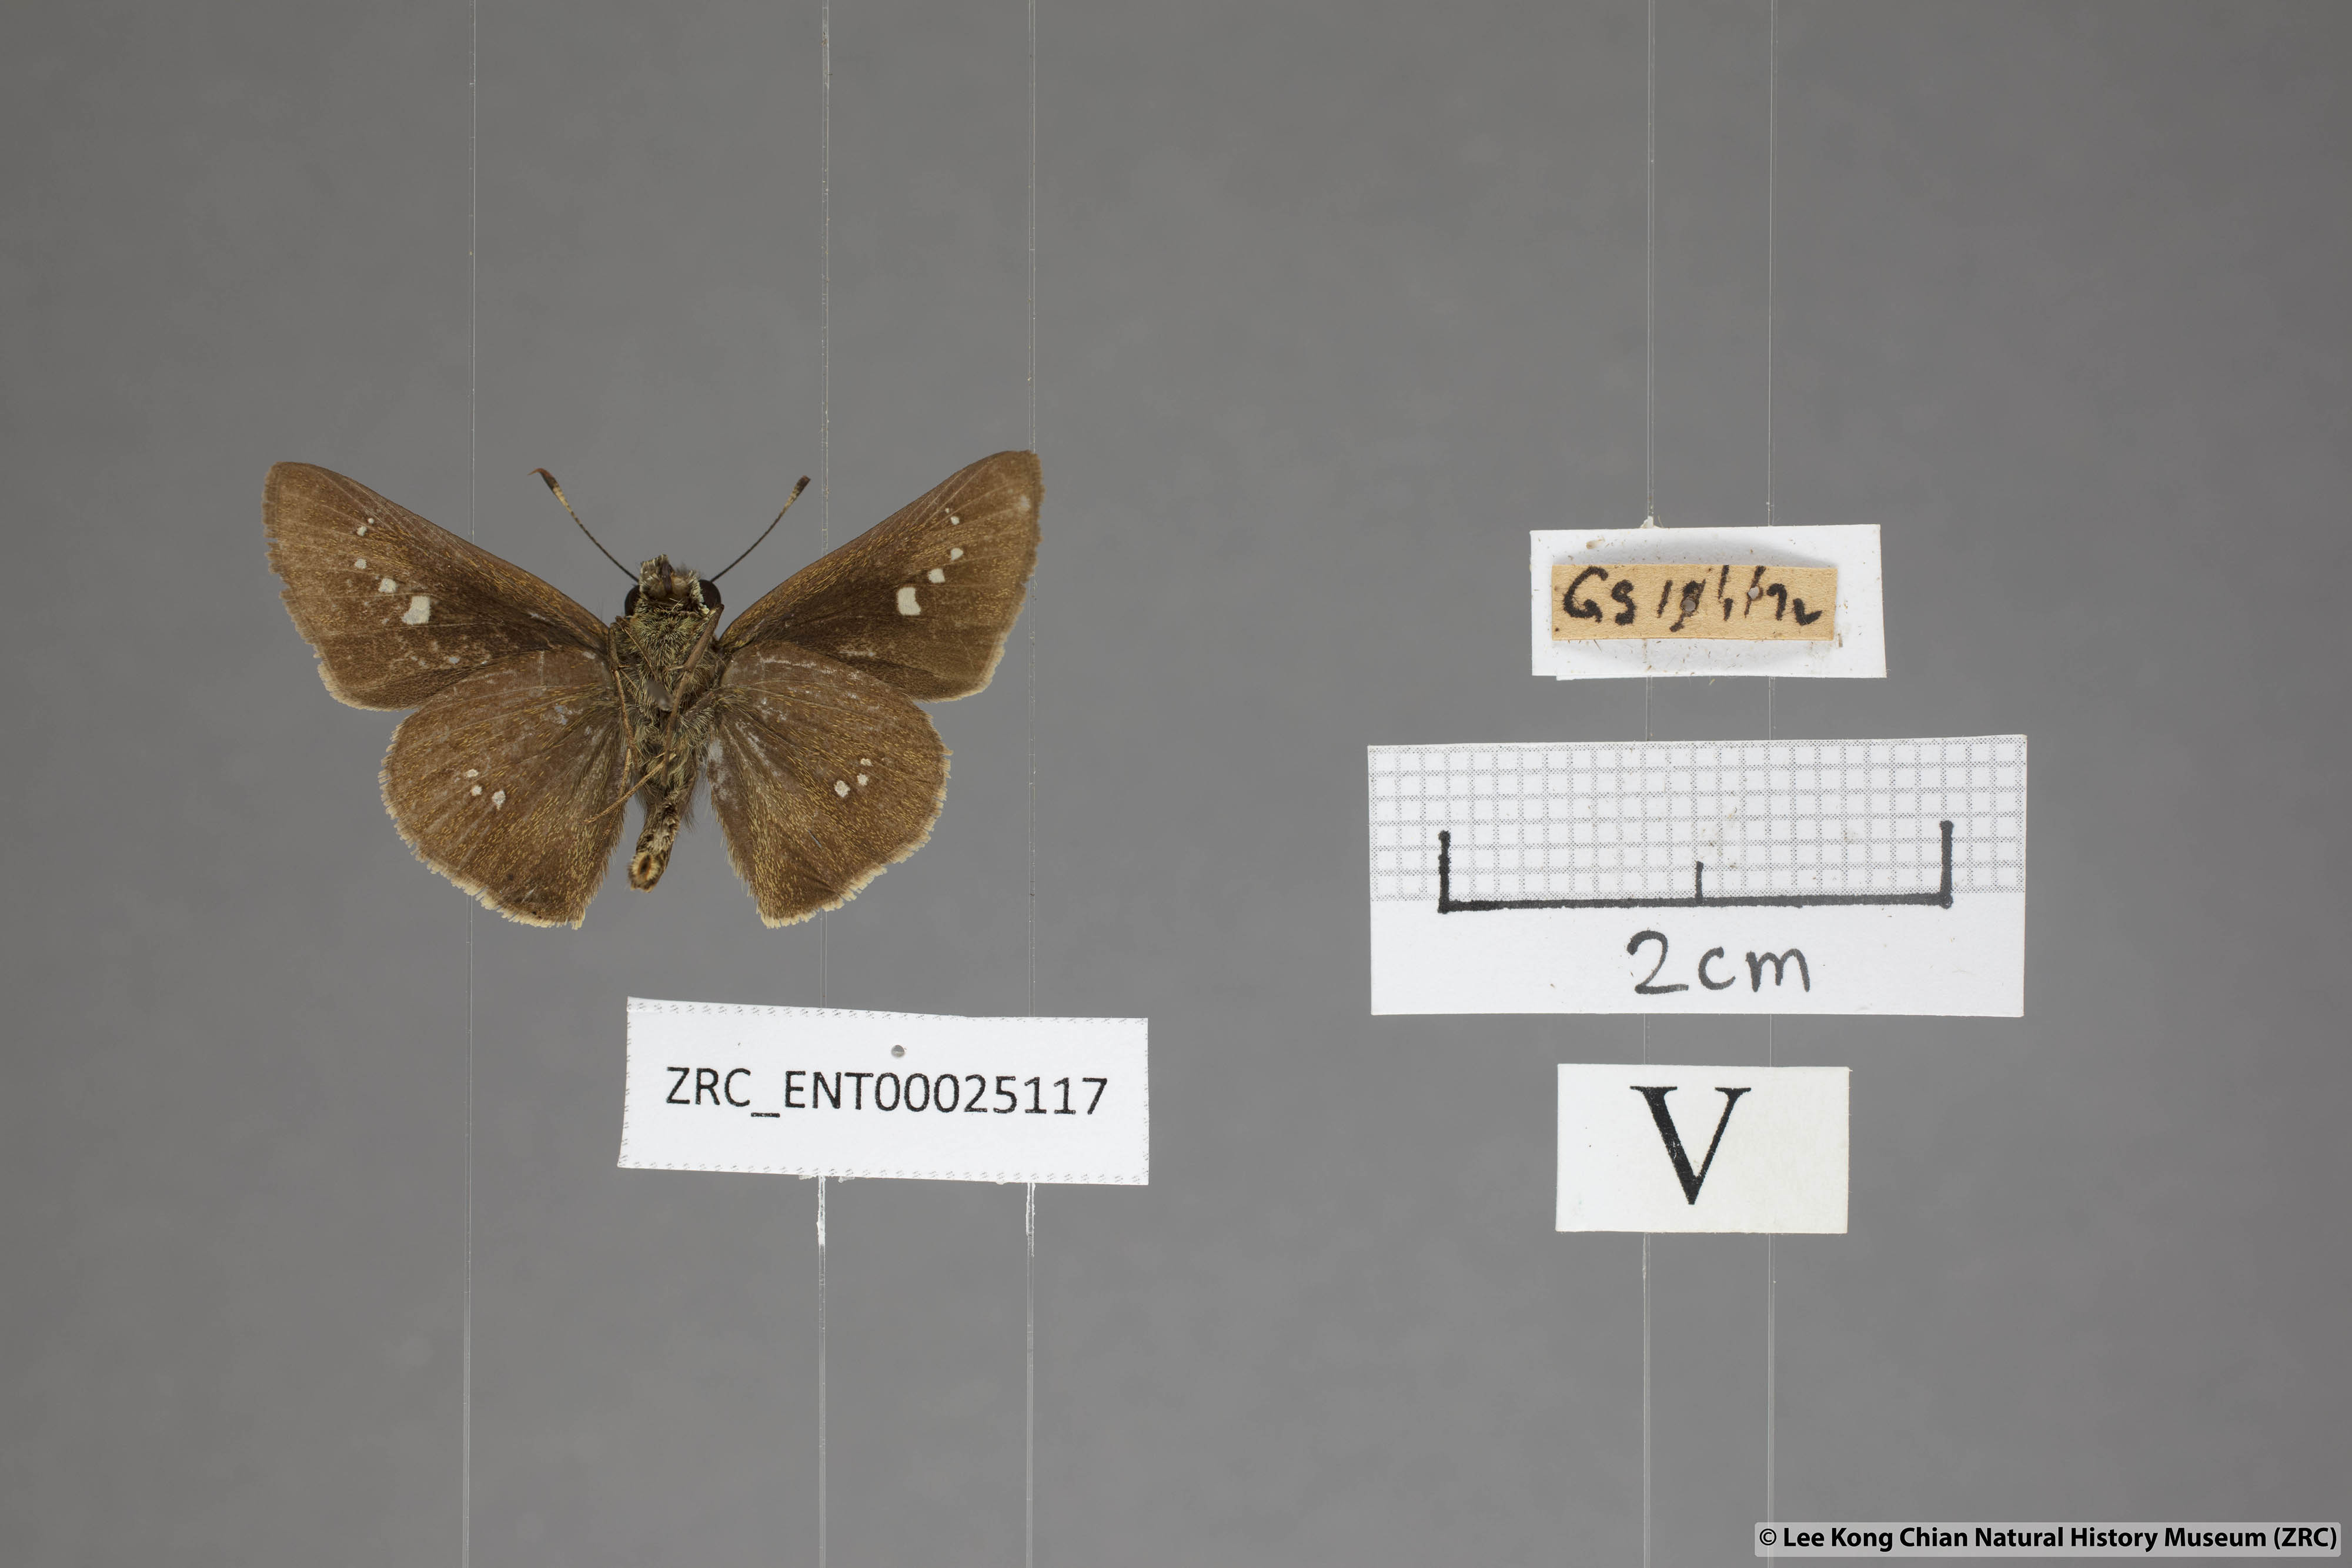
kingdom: Animalia
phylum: Arthropoda
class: Insecta
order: Lepidoptera
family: Hesperiidae
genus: Parnara
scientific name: Parnara apostata
